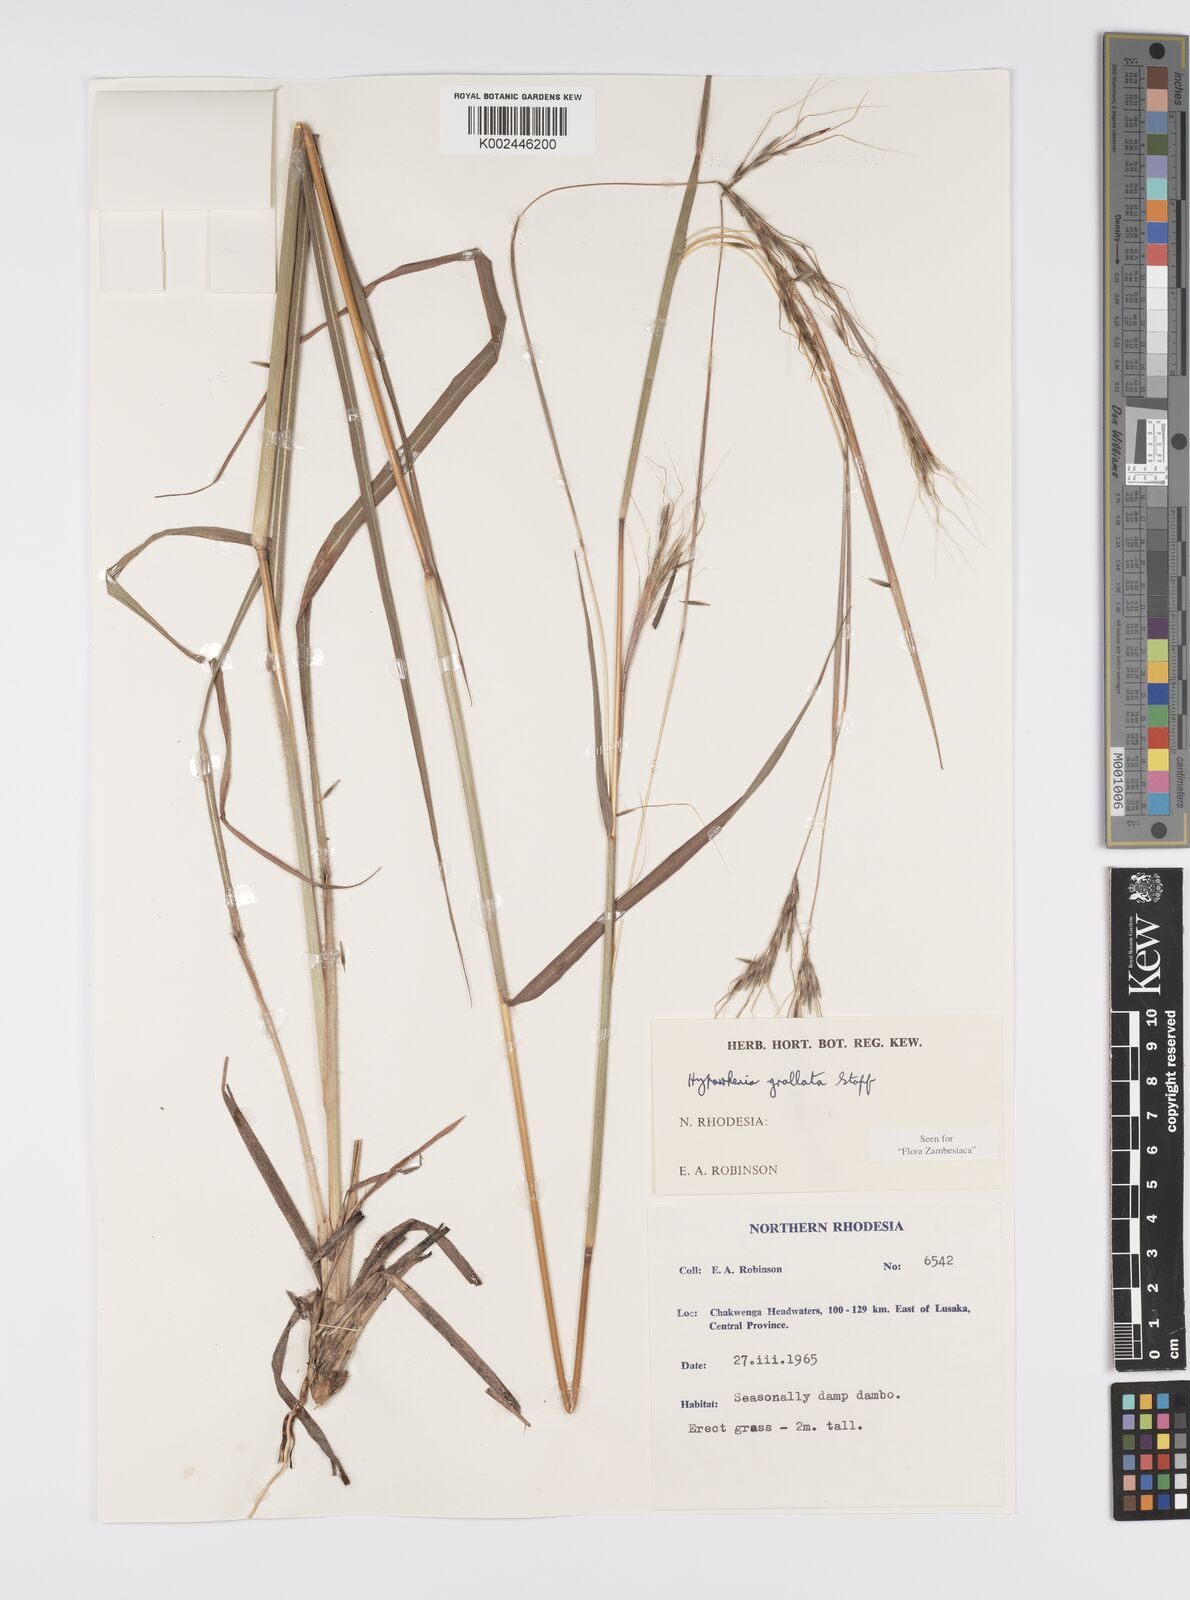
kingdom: Plantae
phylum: Tracheophyta
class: Liliopsida
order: Poales
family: Poaceae
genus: Elymandra
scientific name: Elymandra grallata
